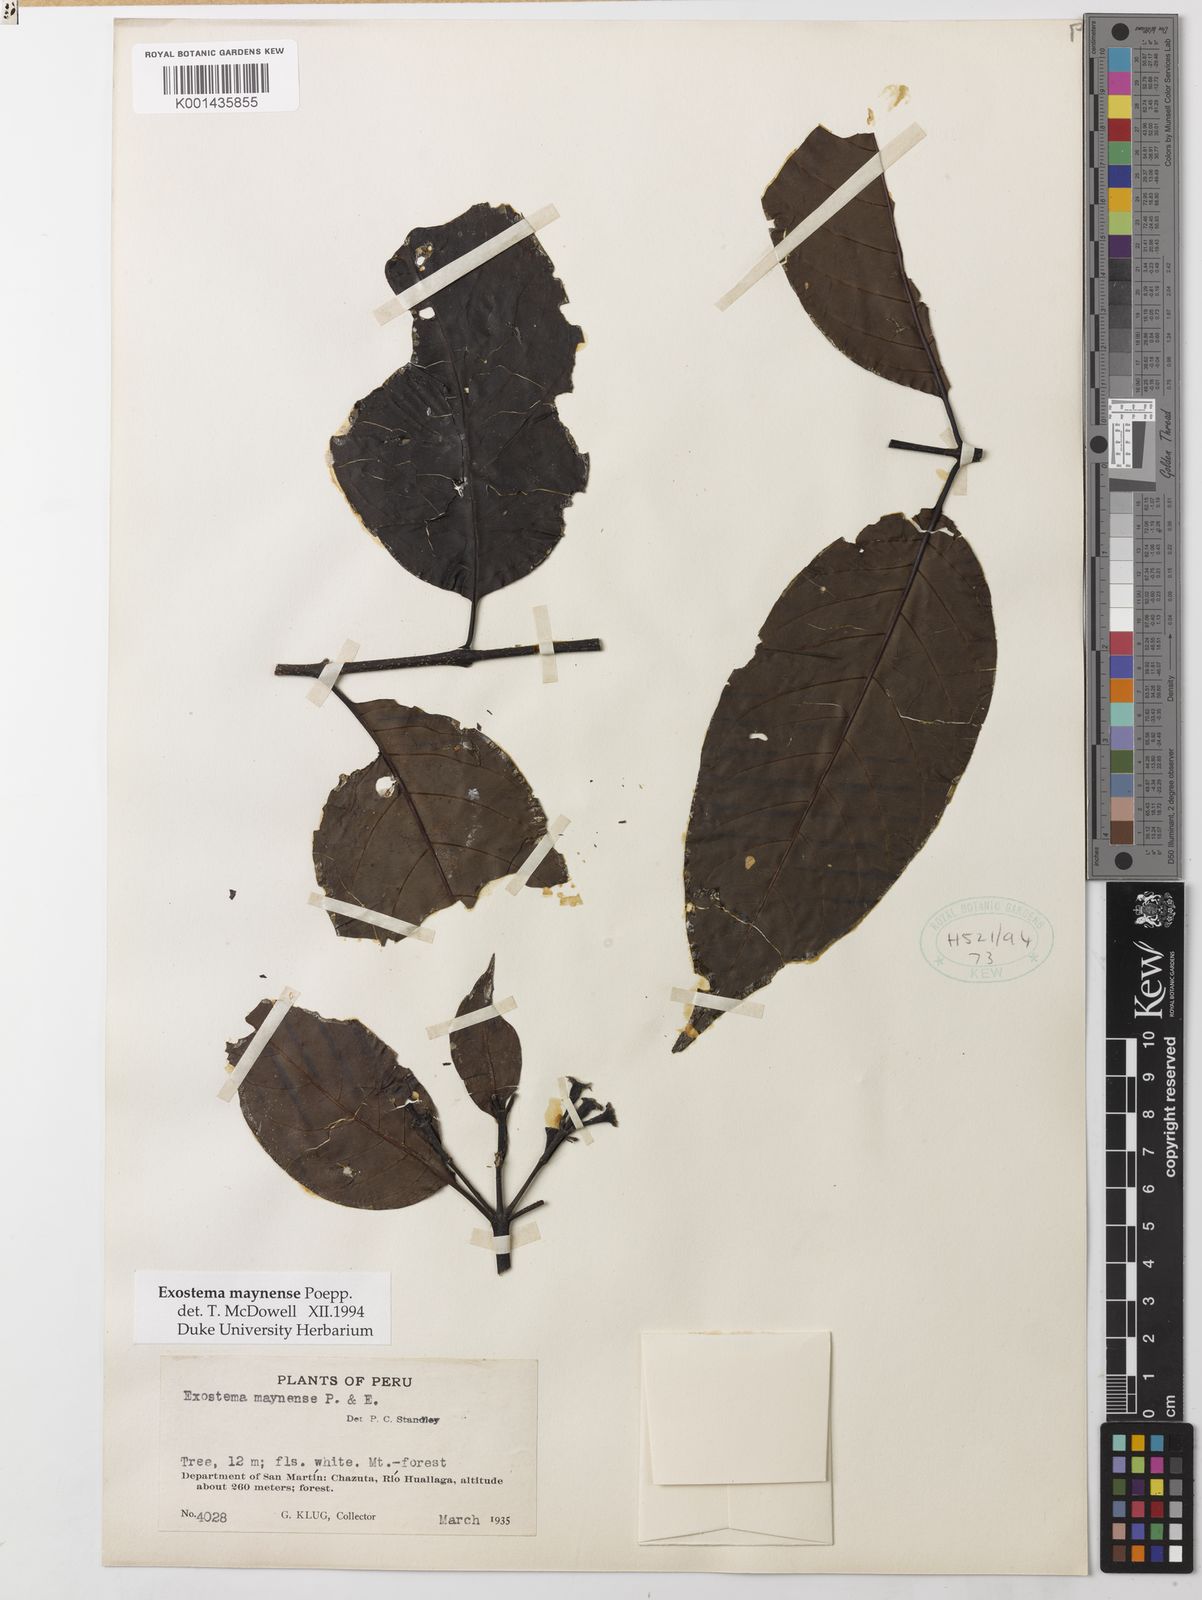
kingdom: Plantae
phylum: Tracheophyta
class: Magnoliopsida
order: Gentianales
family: Rubiaceae
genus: Adolphoduckea
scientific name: Adolphoduckea maynensis
